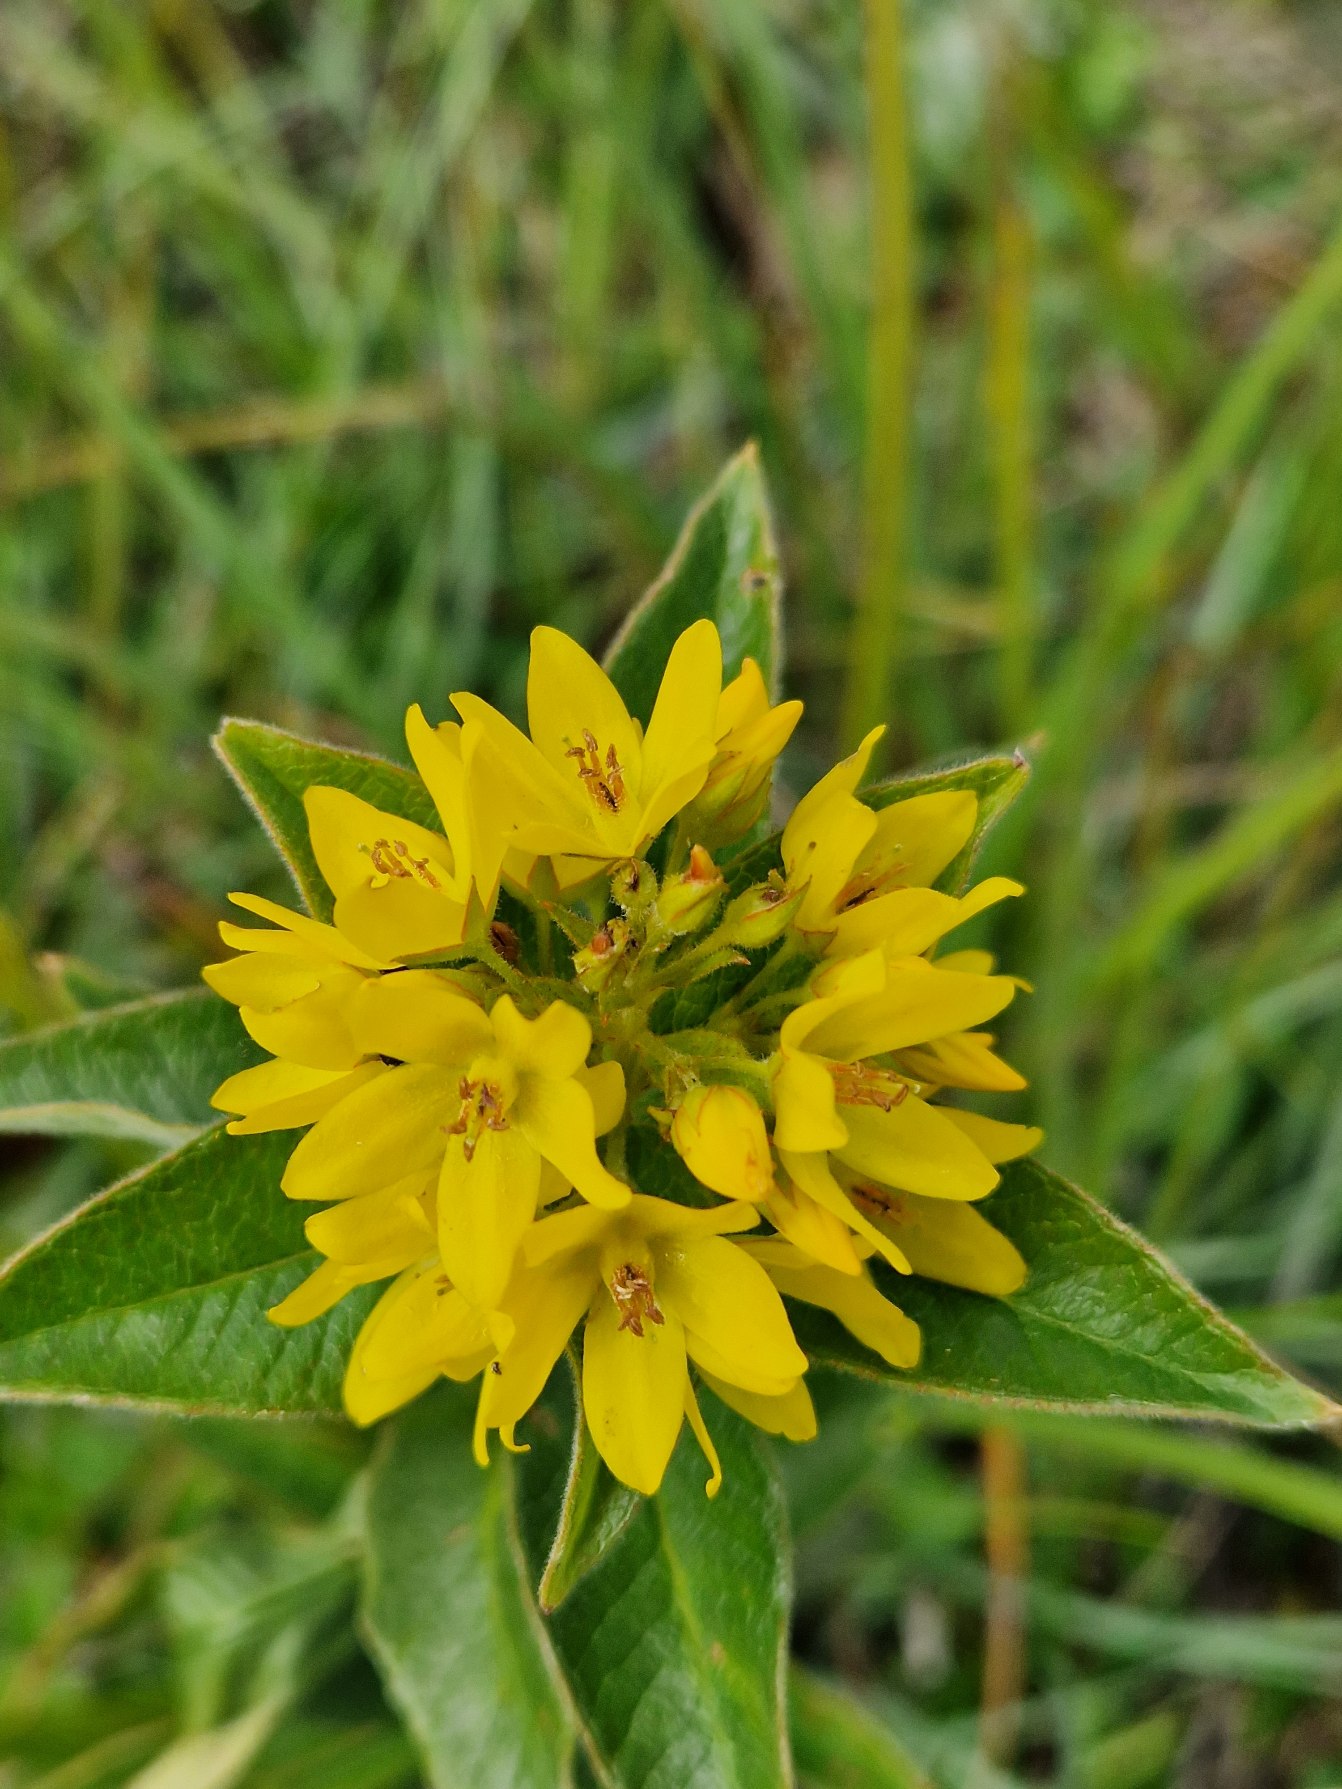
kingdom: Plantae
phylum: Tracheophyta
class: Magnoliopsida
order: Ericales
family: Primulaceae
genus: Lysimachia
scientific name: Lysimachia vulgaris
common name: Almindelig fredløs
